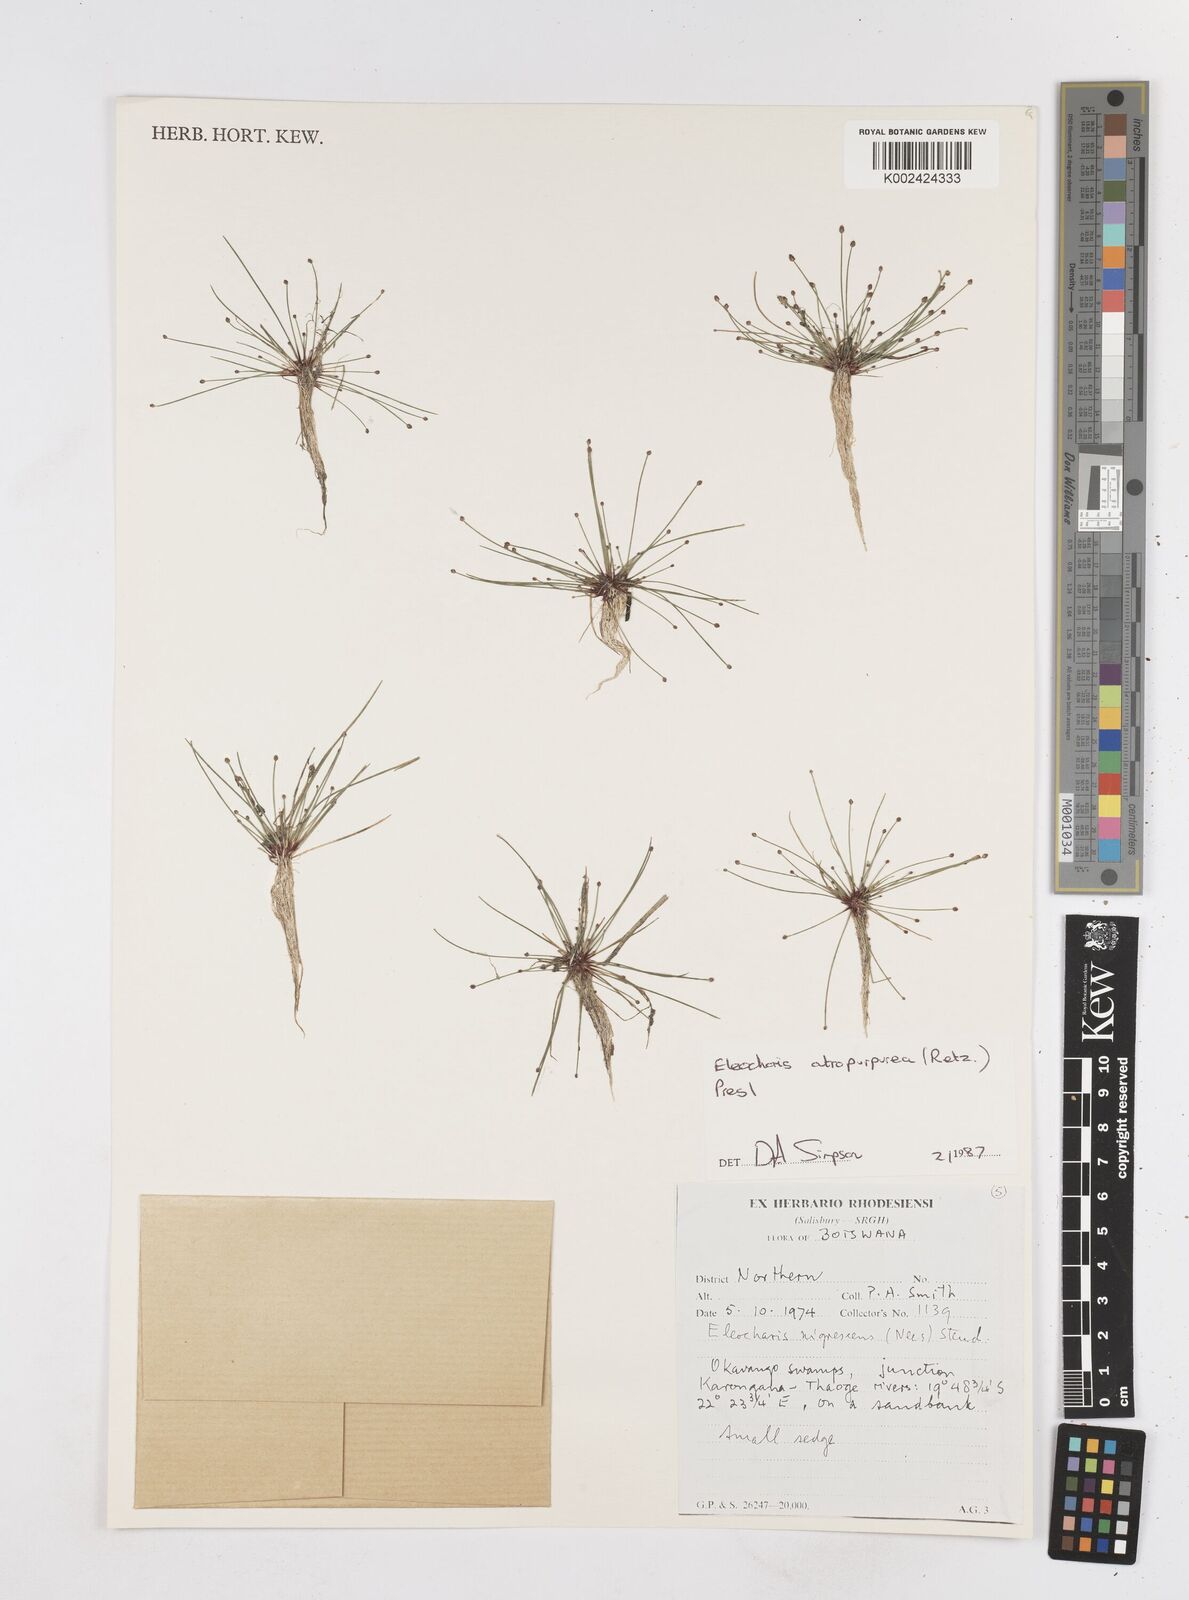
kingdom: Plantae
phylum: Tracheophyta
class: Liliopsida
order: Poales
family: Cyperaceae
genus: Eleocharis
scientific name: Eleocharis atropurpurea
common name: Purple spikerush
